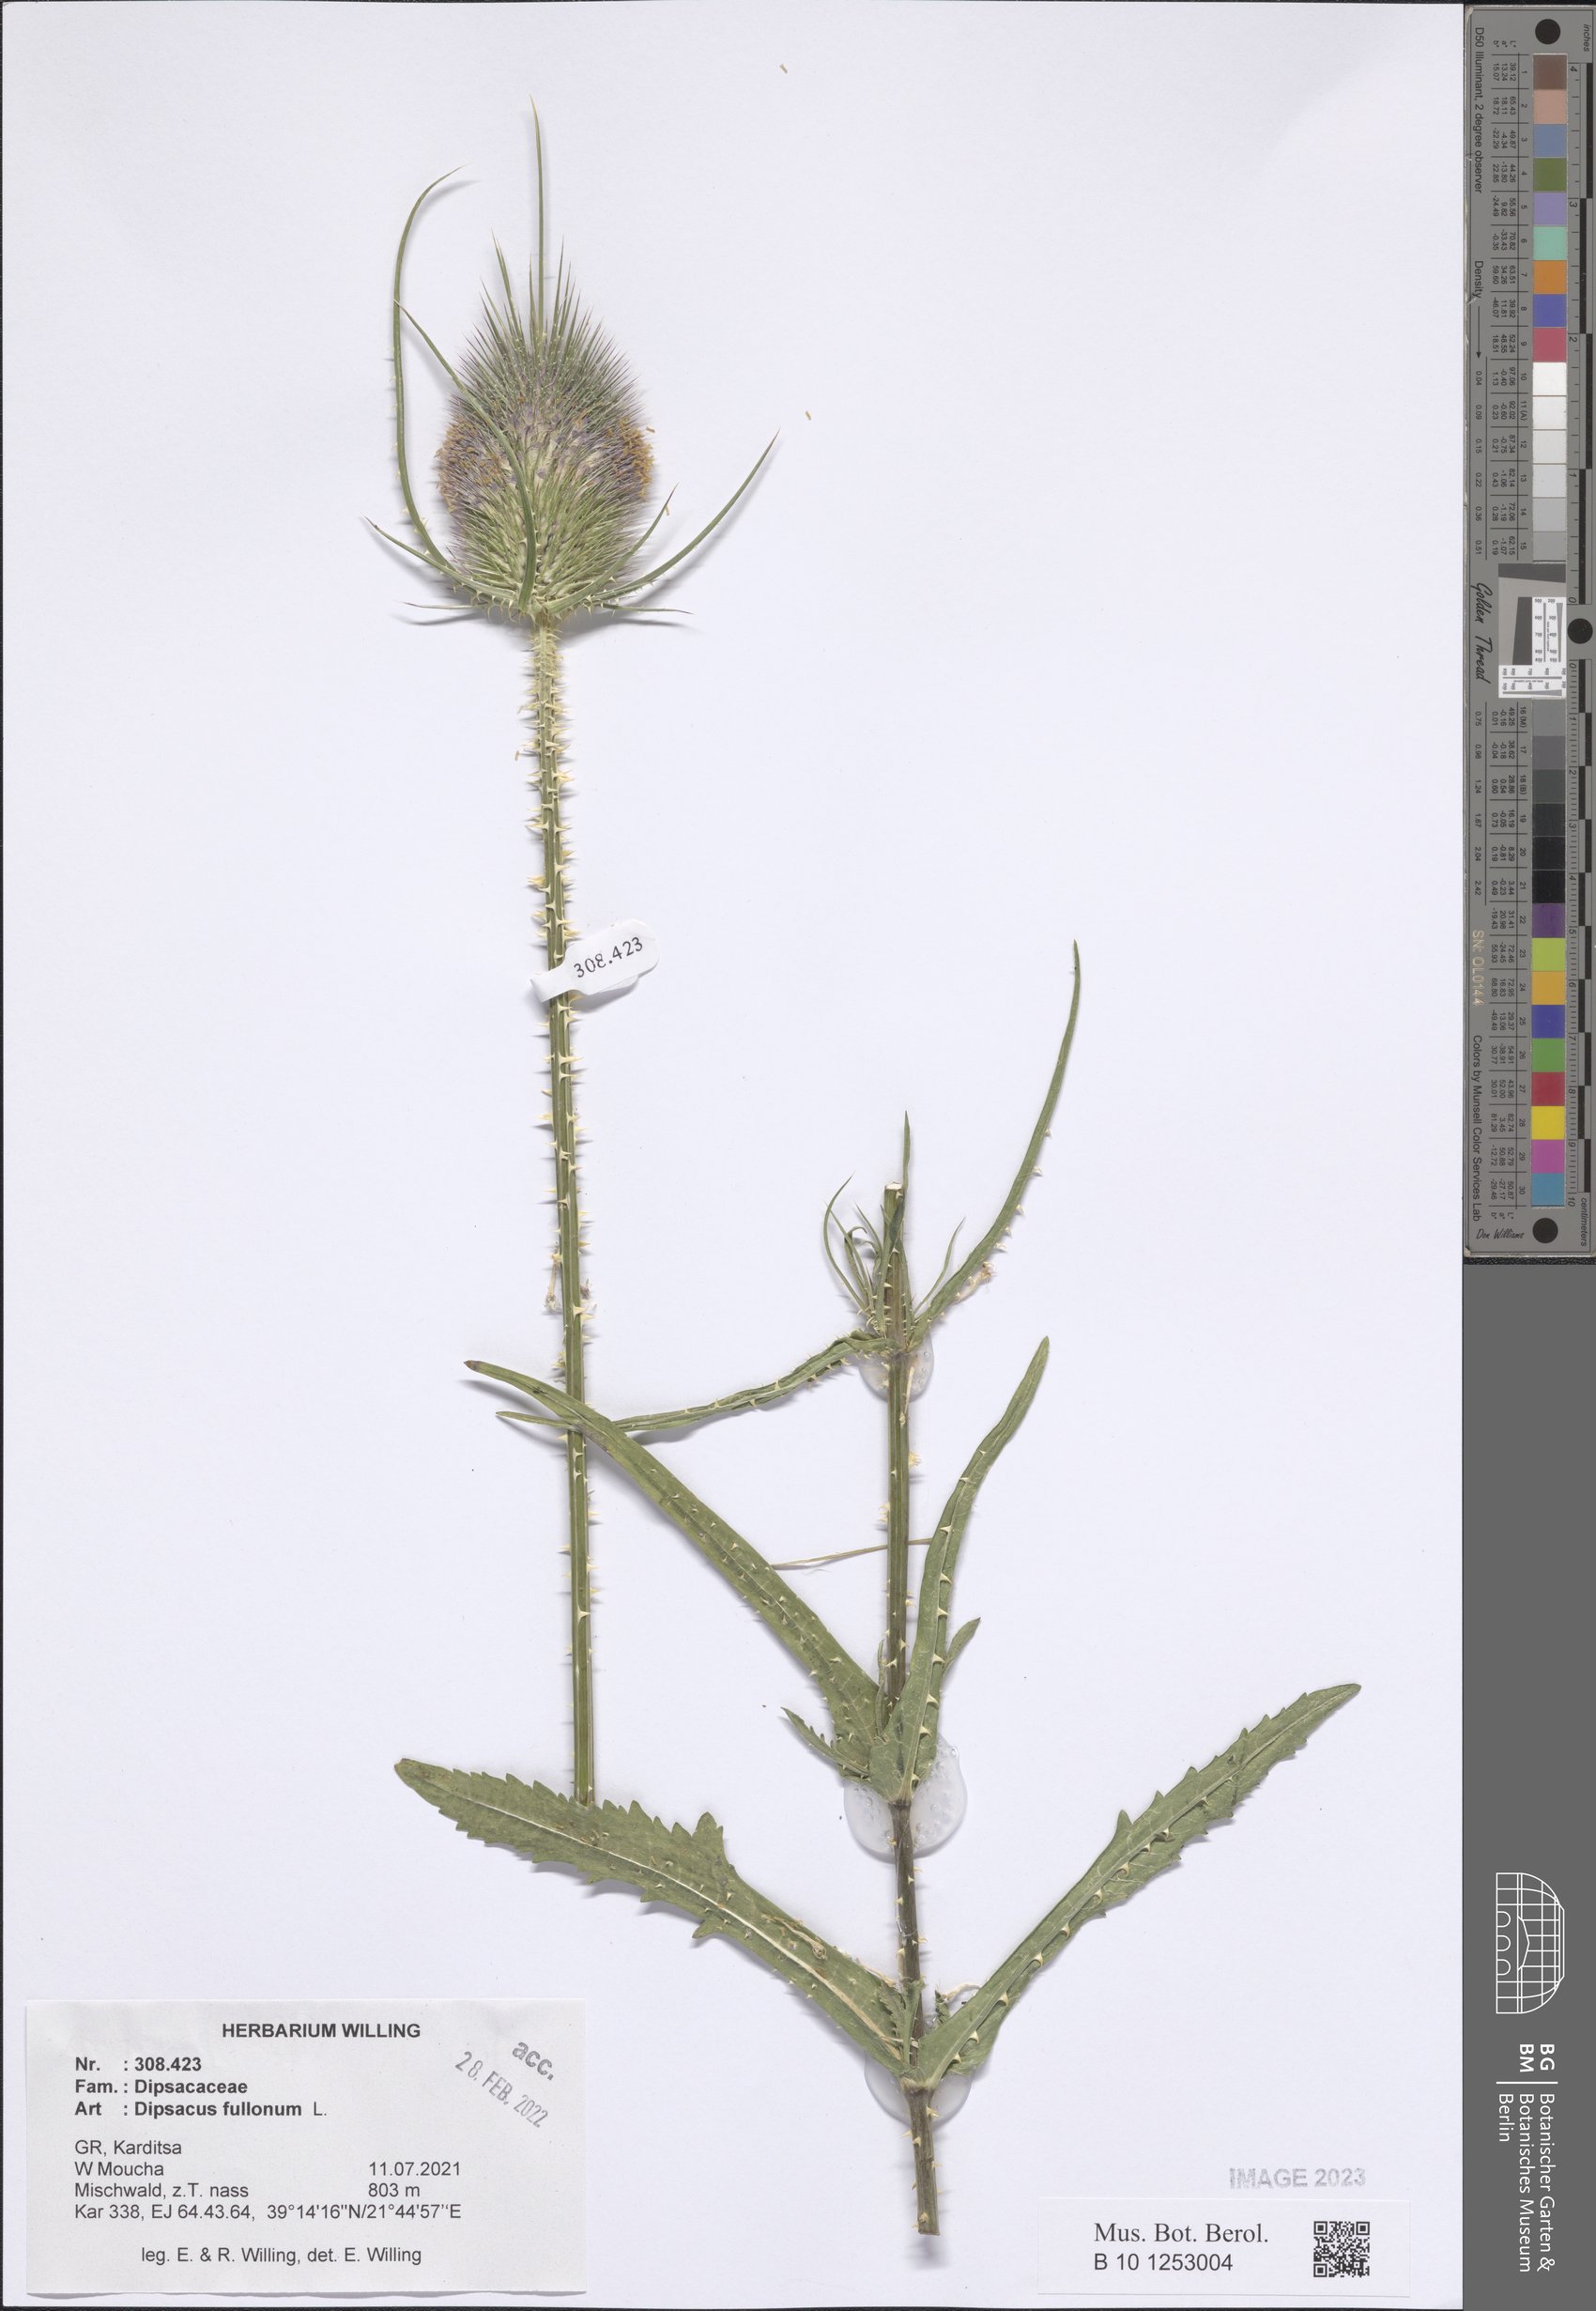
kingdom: Plantae
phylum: Tracheophyta
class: Magnoliopsida
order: Dipsacales
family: Caprifoliaceae
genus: Dipsacus
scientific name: Dipsacus fullonum
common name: Teasel
